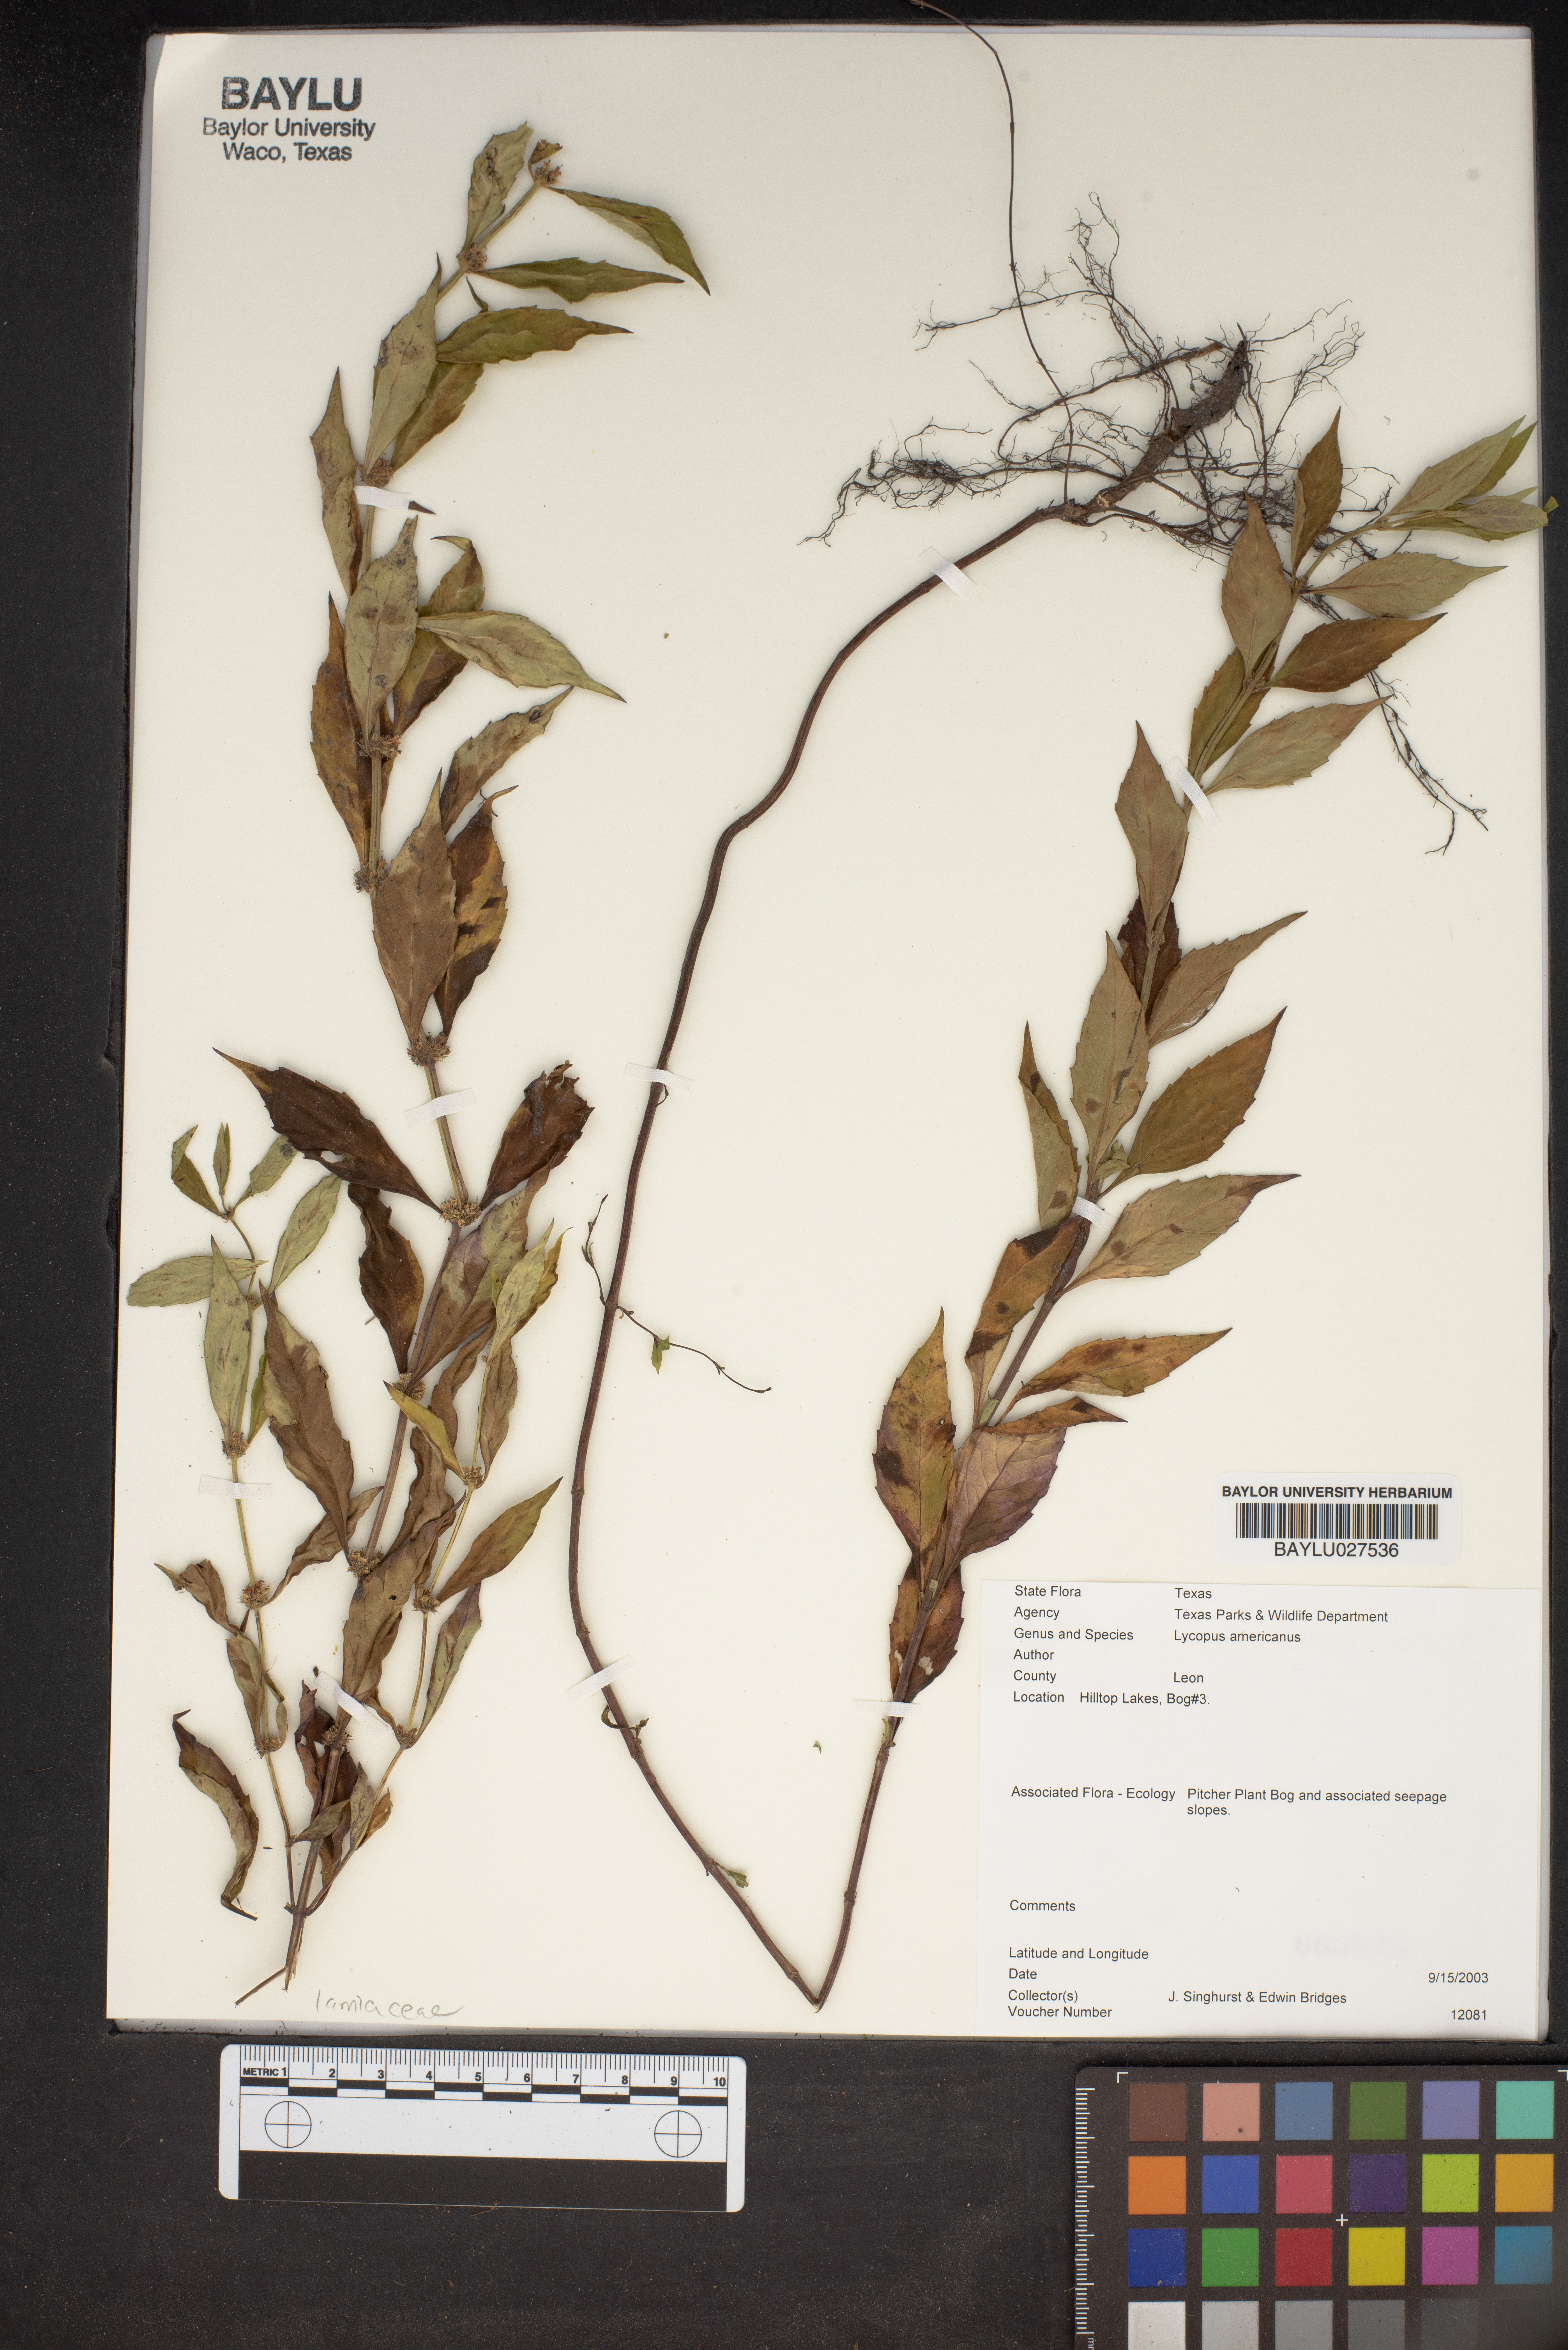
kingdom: Plantae
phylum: Tracheophyta
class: Magnoliopsida
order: Lamiales
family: Lamiaceae
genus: Lycopus
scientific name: Lycopus americanus
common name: American bugleweed
